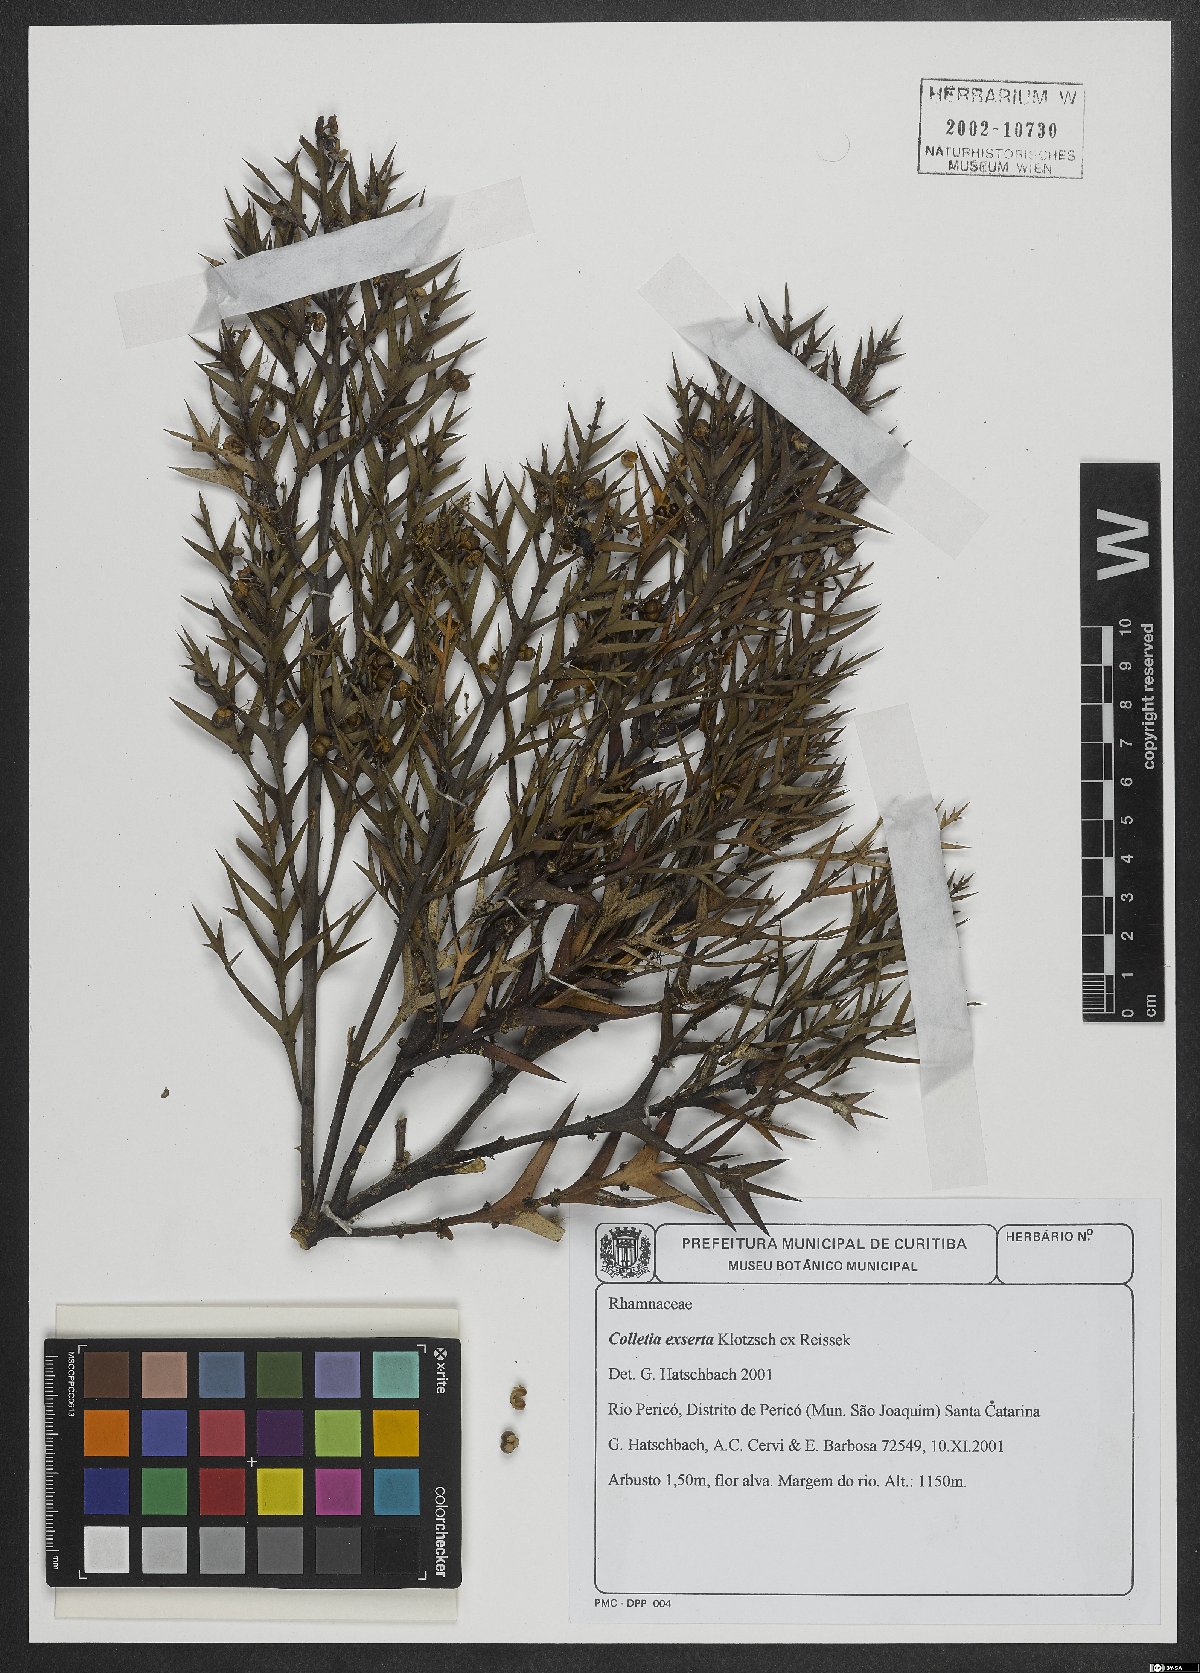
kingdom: Plantae
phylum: Tracheophyta
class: Magnoliopsida
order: Rosales
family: Rhamnaceae
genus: Colletia
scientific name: Colletia paradoxa
